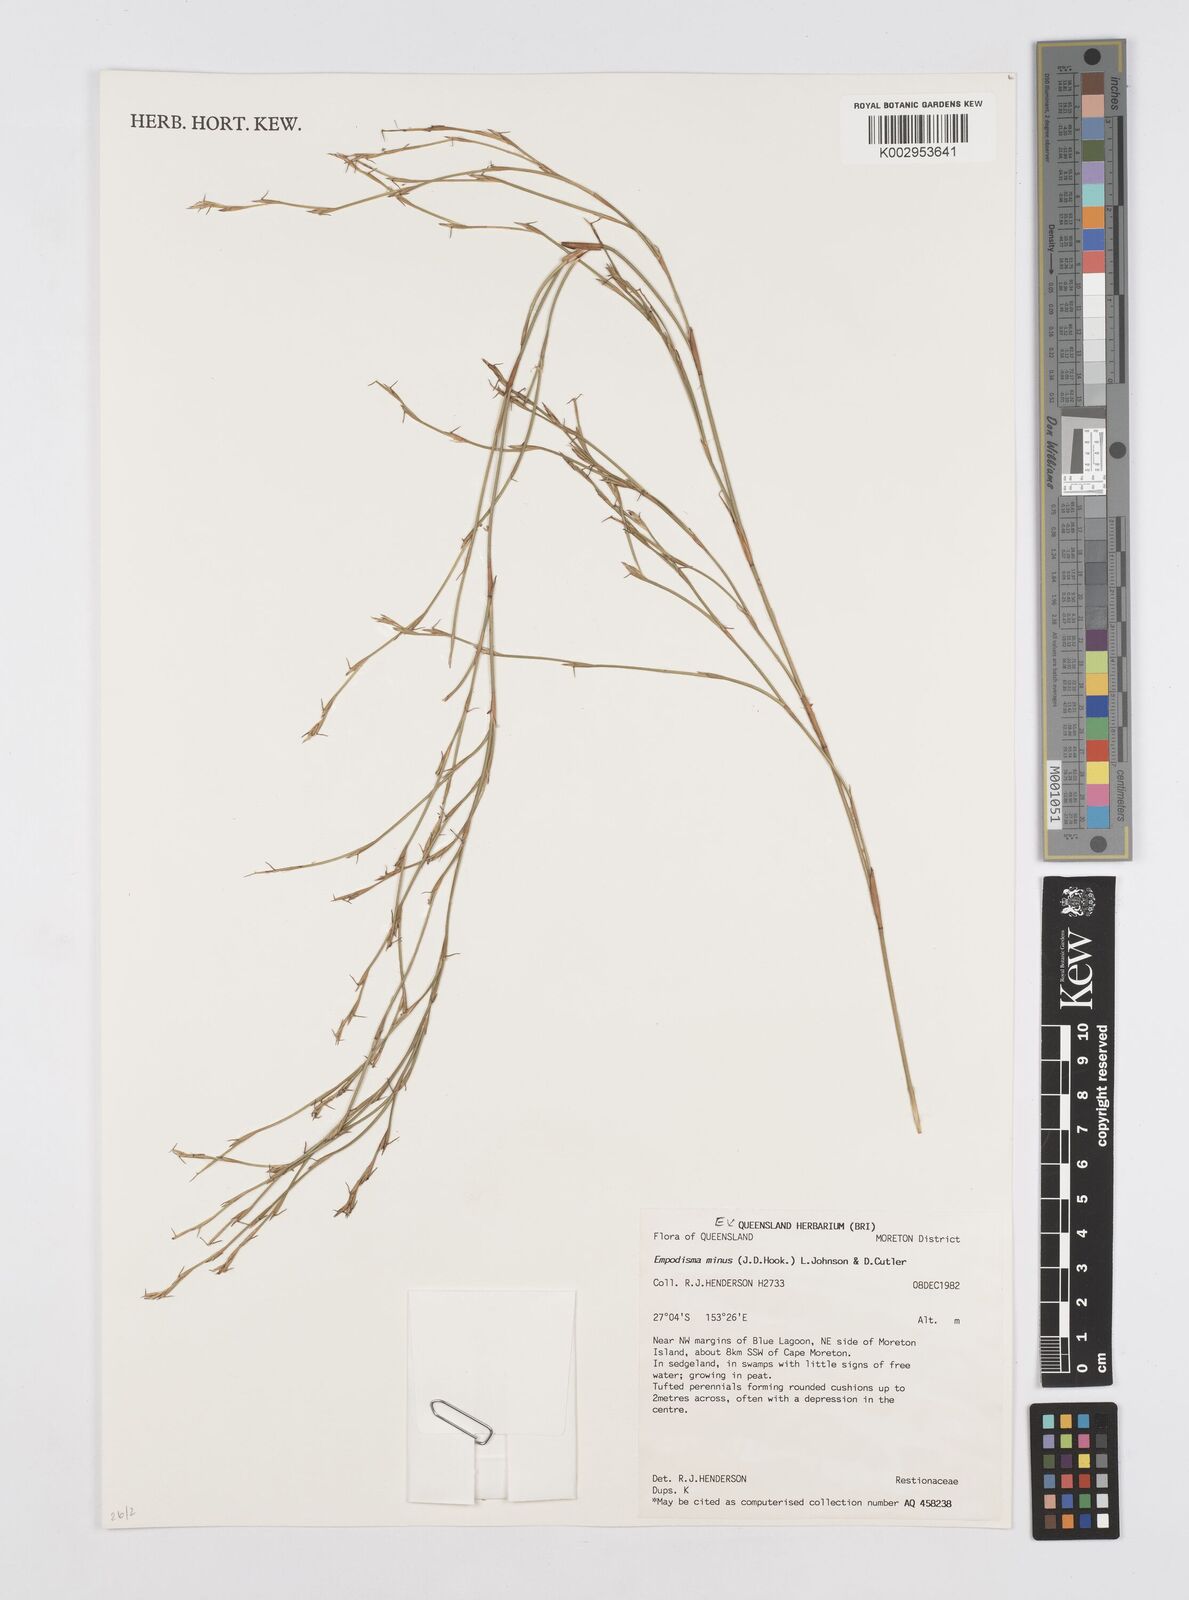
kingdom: Plantae
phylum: Tracheophyta
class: Liliopsida
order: Poales
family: Restionaceae
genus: Empodisma
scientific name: Empodisma minus
